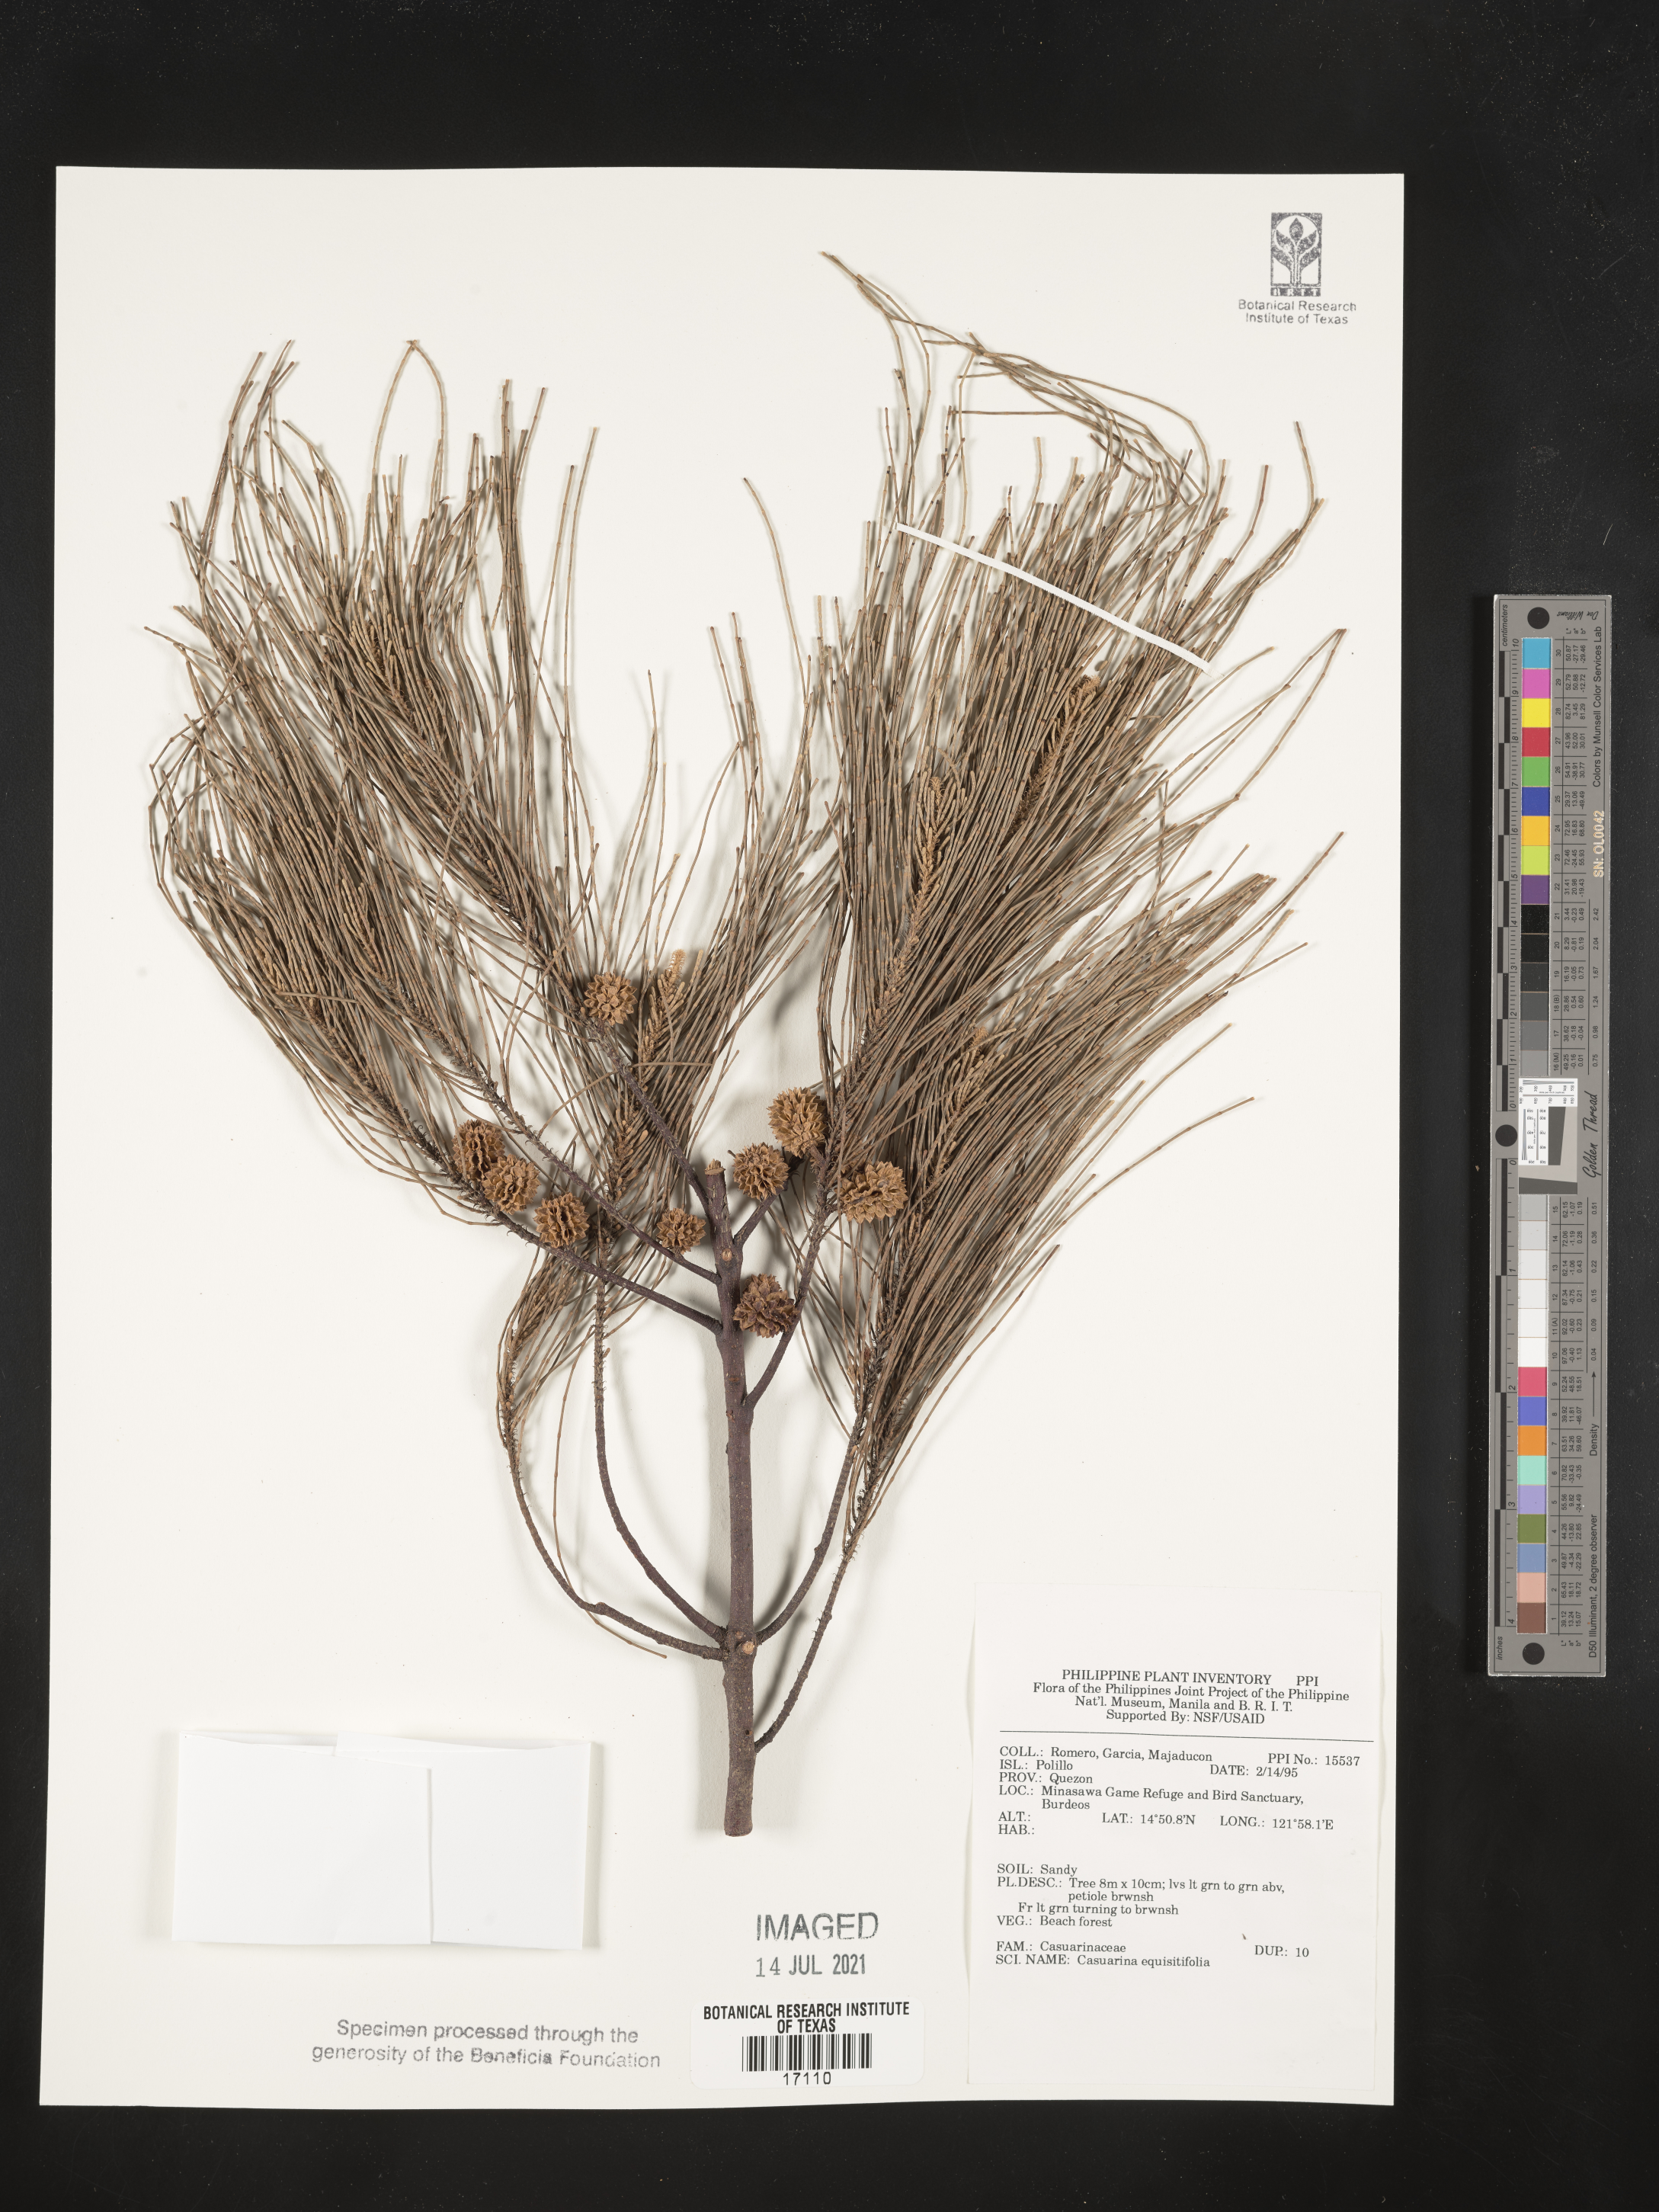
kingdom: Plantae
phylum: Tracheophyta
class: Magnoliopsida
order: Fagales
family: Casuarinaceae
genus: Casuarina
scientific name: Casuarina equisetifolia
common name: Beach sheoak
